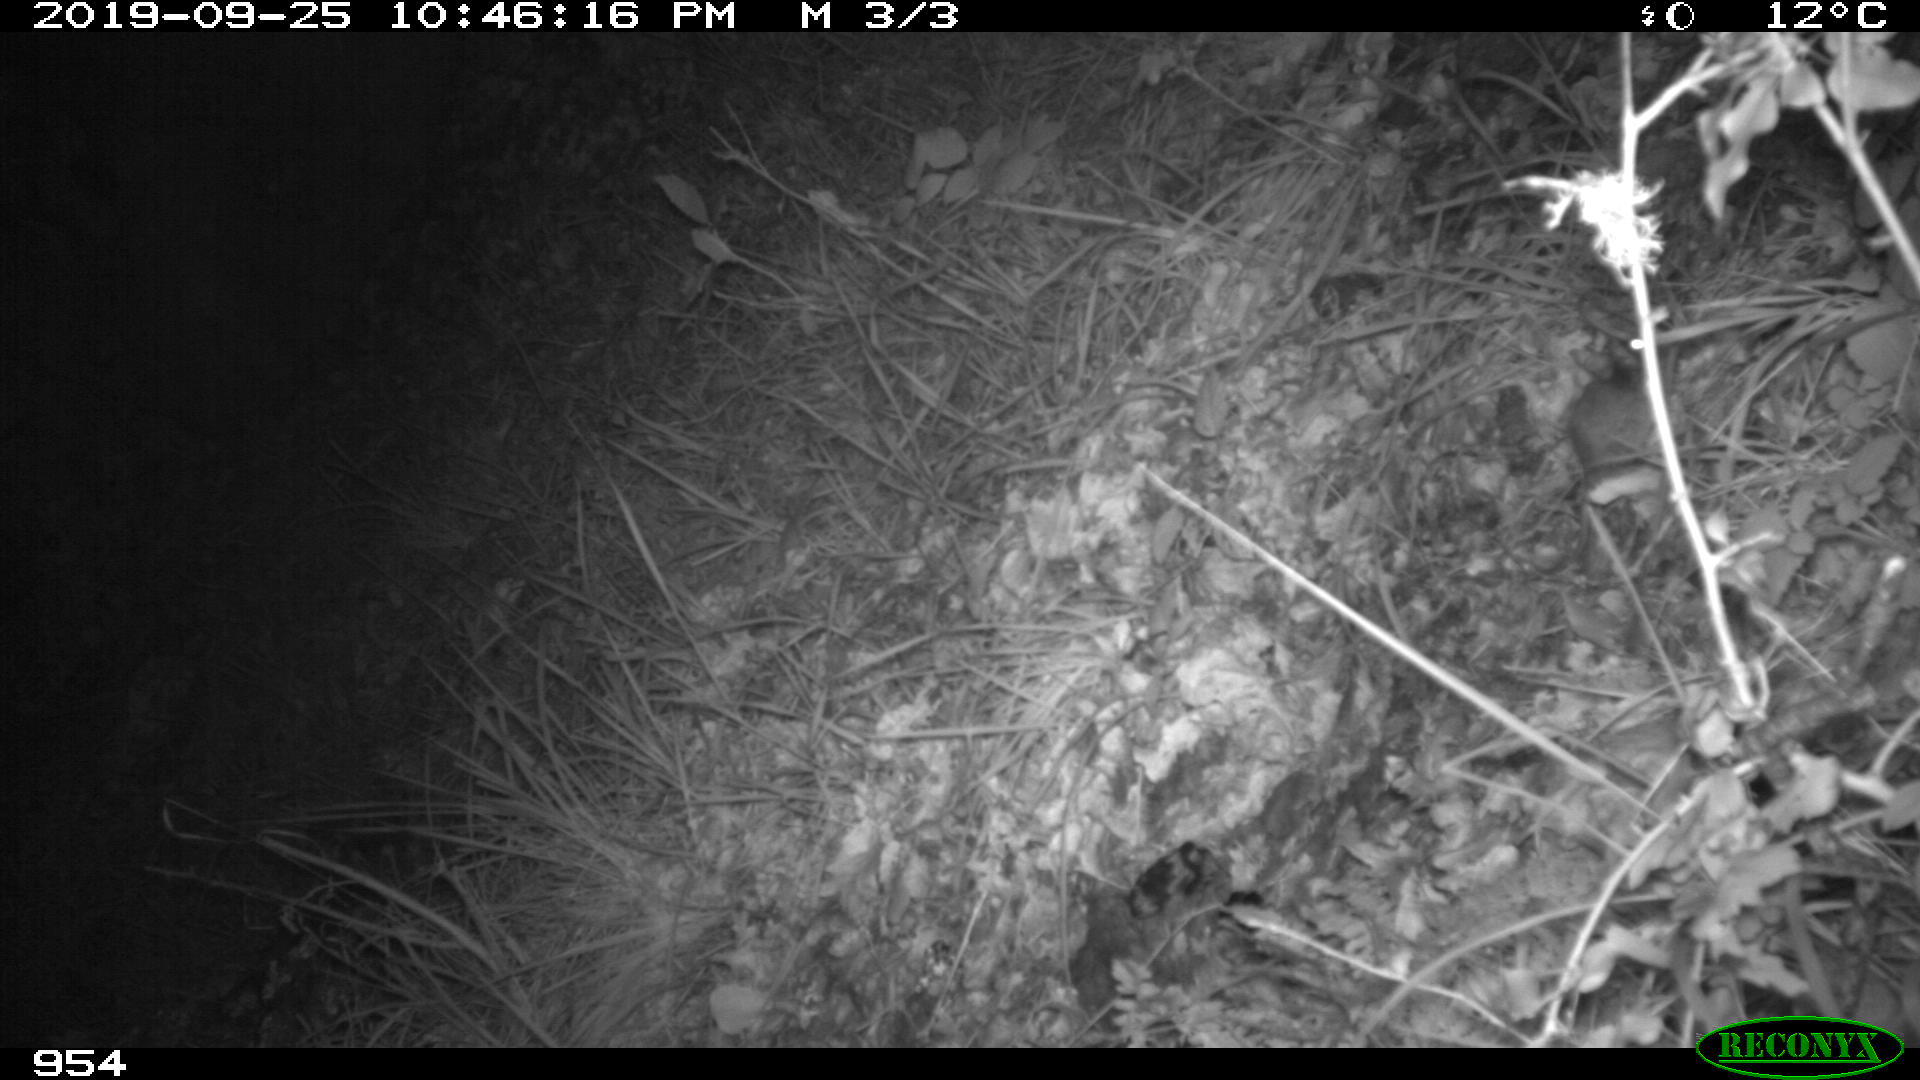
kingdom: Animalia
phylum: Chordata
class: Mammalia
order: Rodentia
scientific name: Rodentia
